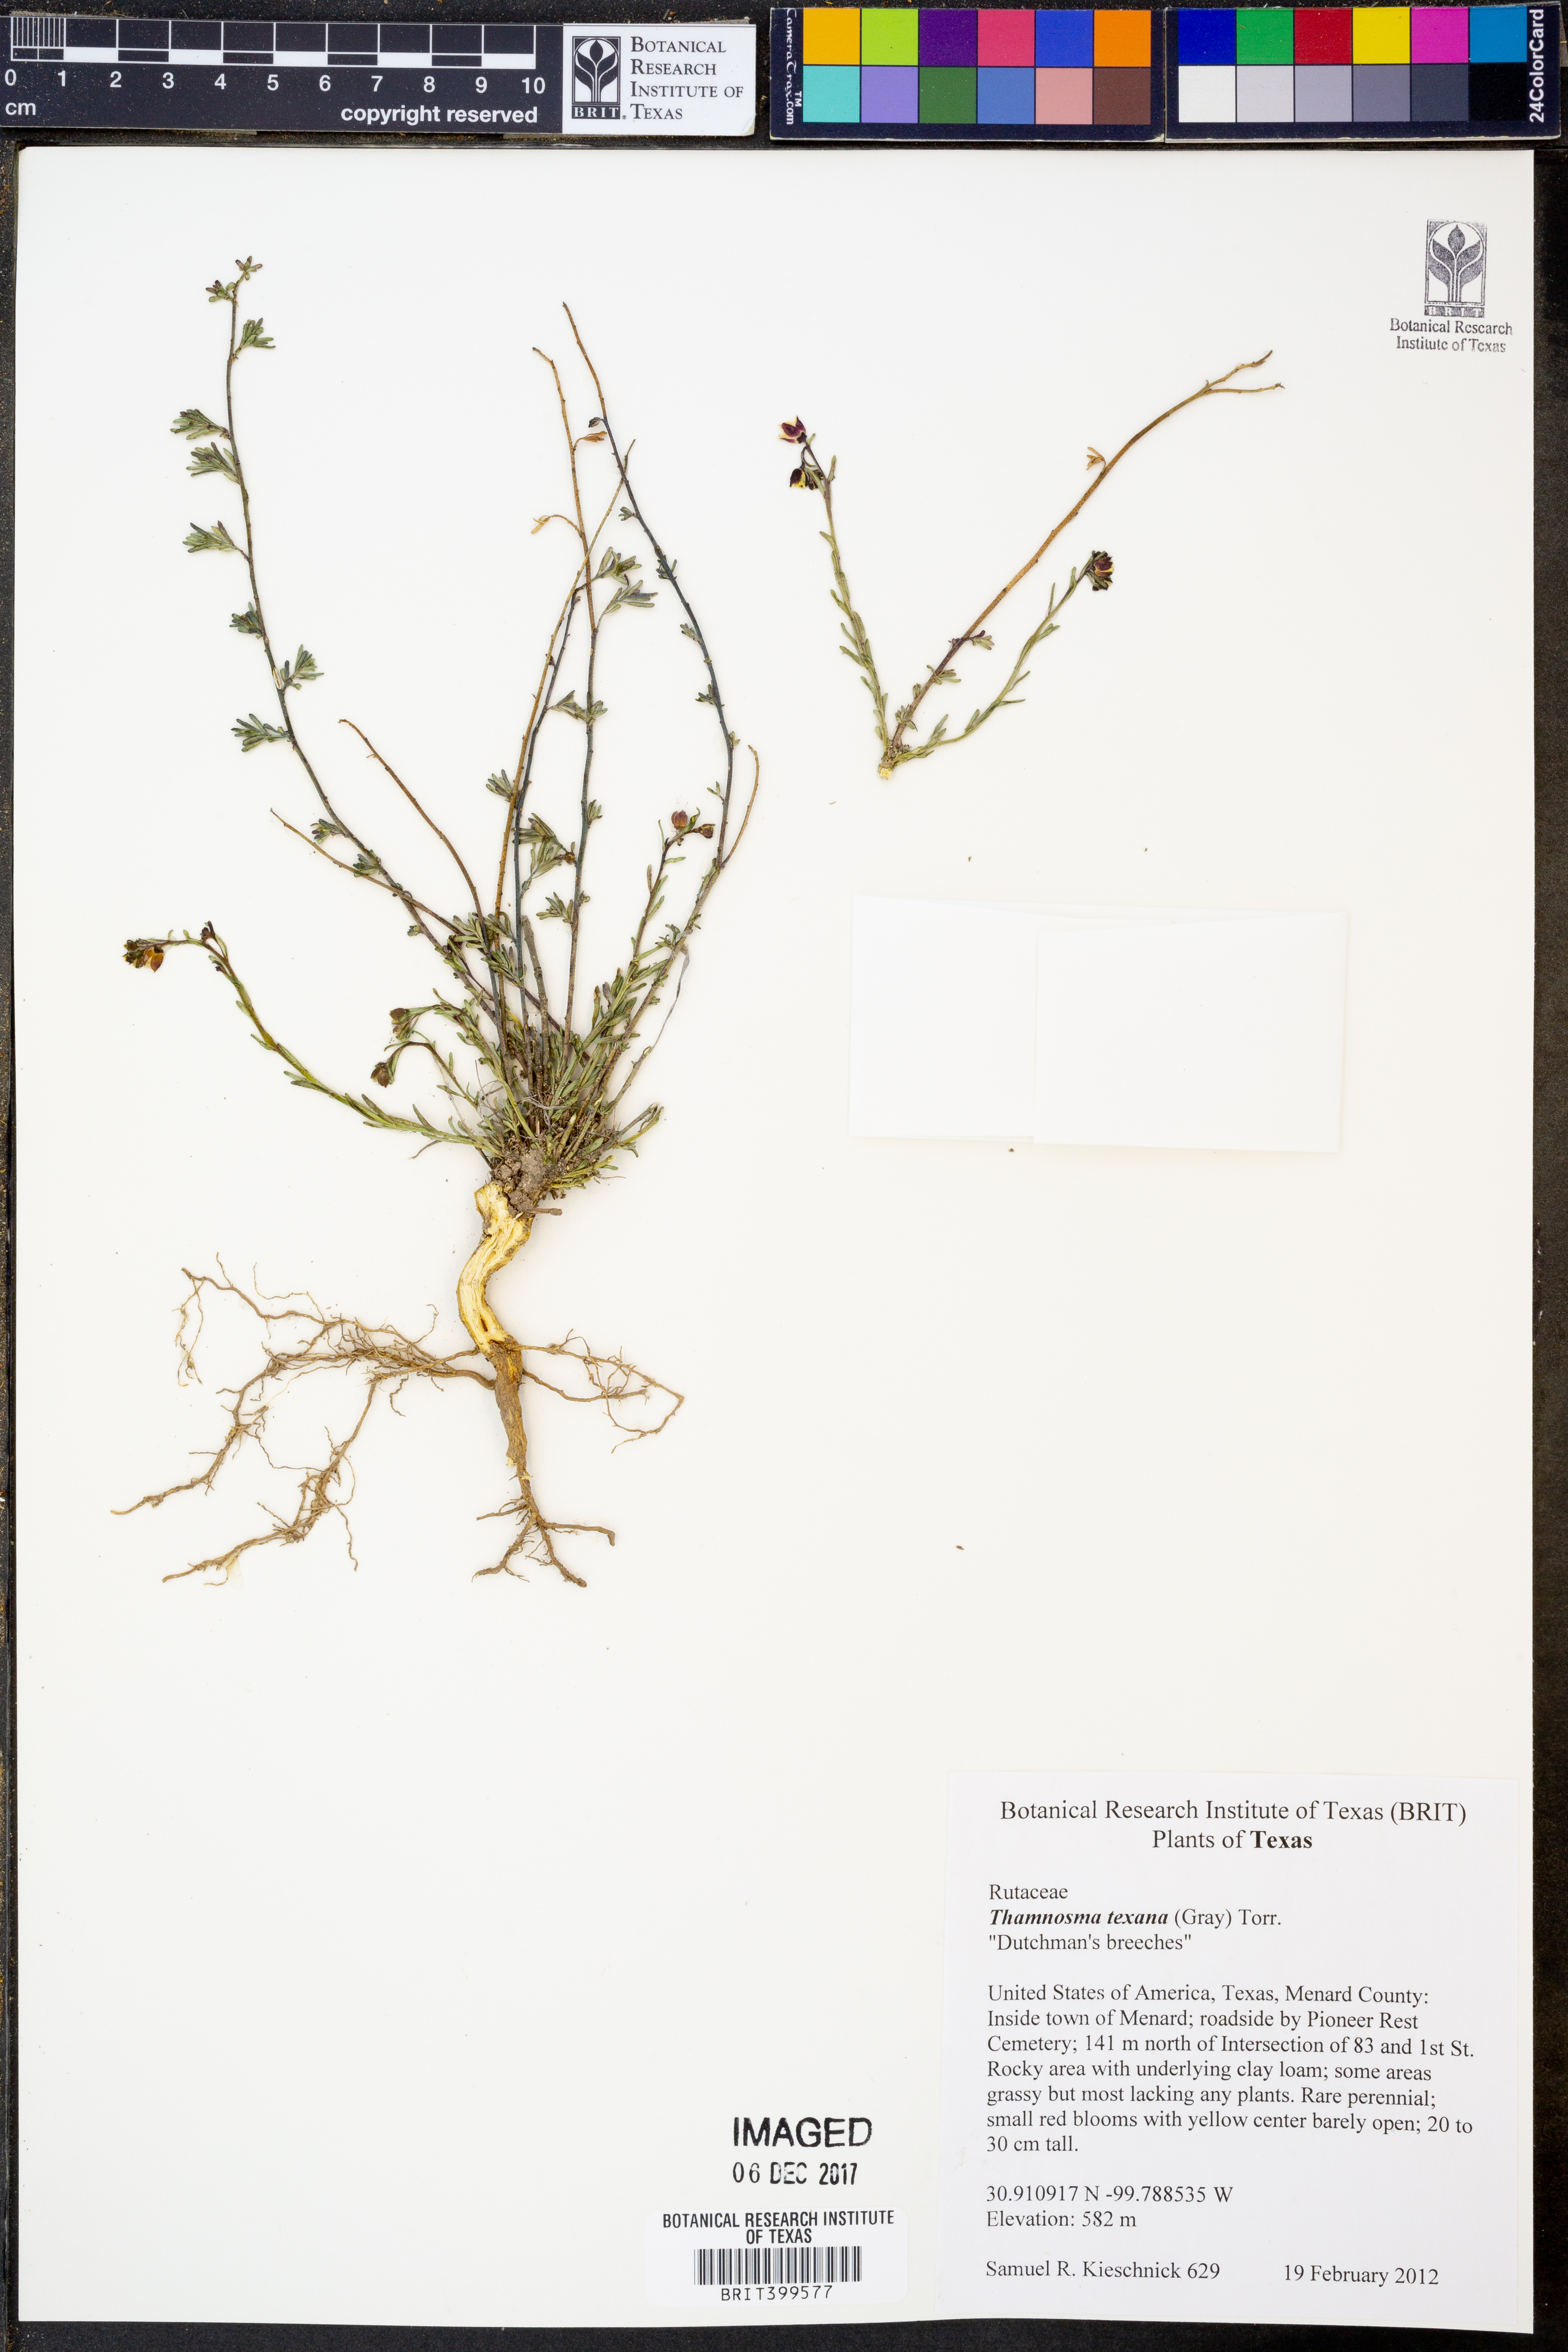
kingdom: Plantae
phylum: Tracheophyta
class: Magnoliopsida
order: Sapindales
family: Rutaceae
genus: Thamnosma
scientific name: Thamnosma texana
